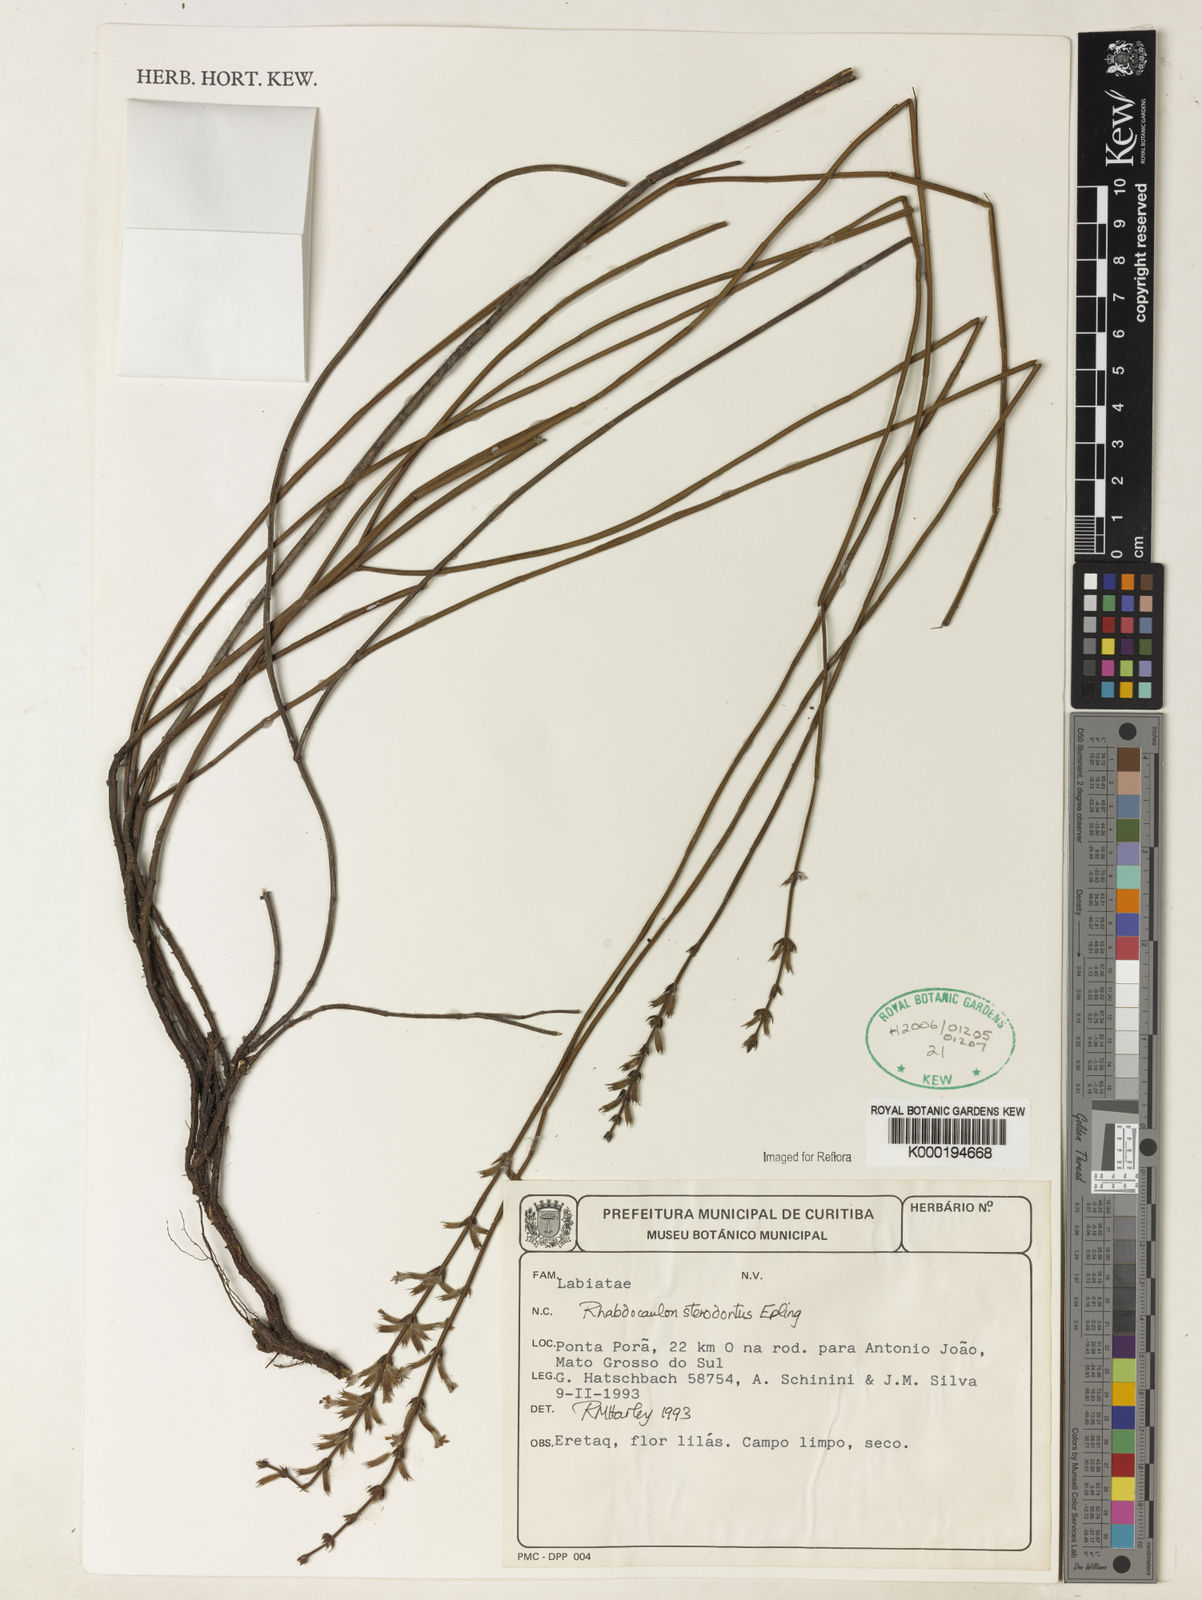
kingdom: Plantae
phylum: Tracheophyta
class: Magnoliopsida
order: Lamiales
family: Lamiaceae
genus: Rhabdocaulon
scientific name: Rhabdocaulon
